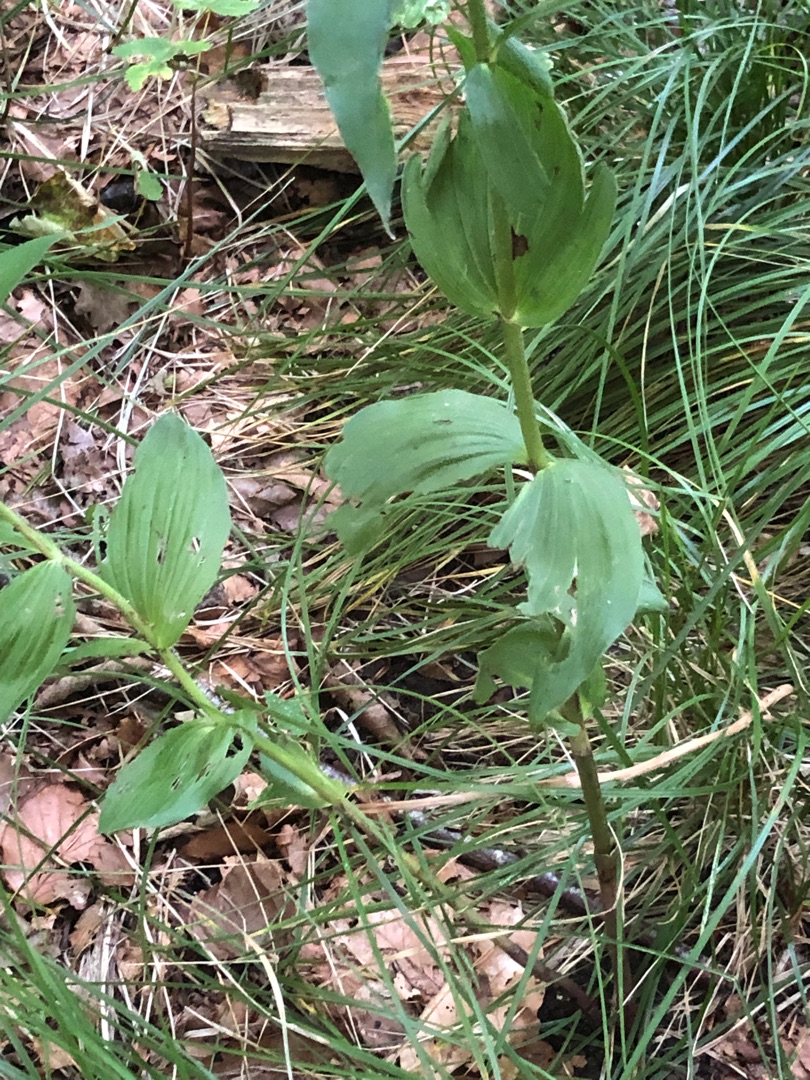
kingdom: Plantae
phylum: Tracheophyta
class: Liliopsida
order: Asparagales
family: Orchidaceae
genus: Epipactis
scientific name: Epipactis helleborine
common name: Skov-hullæbe
